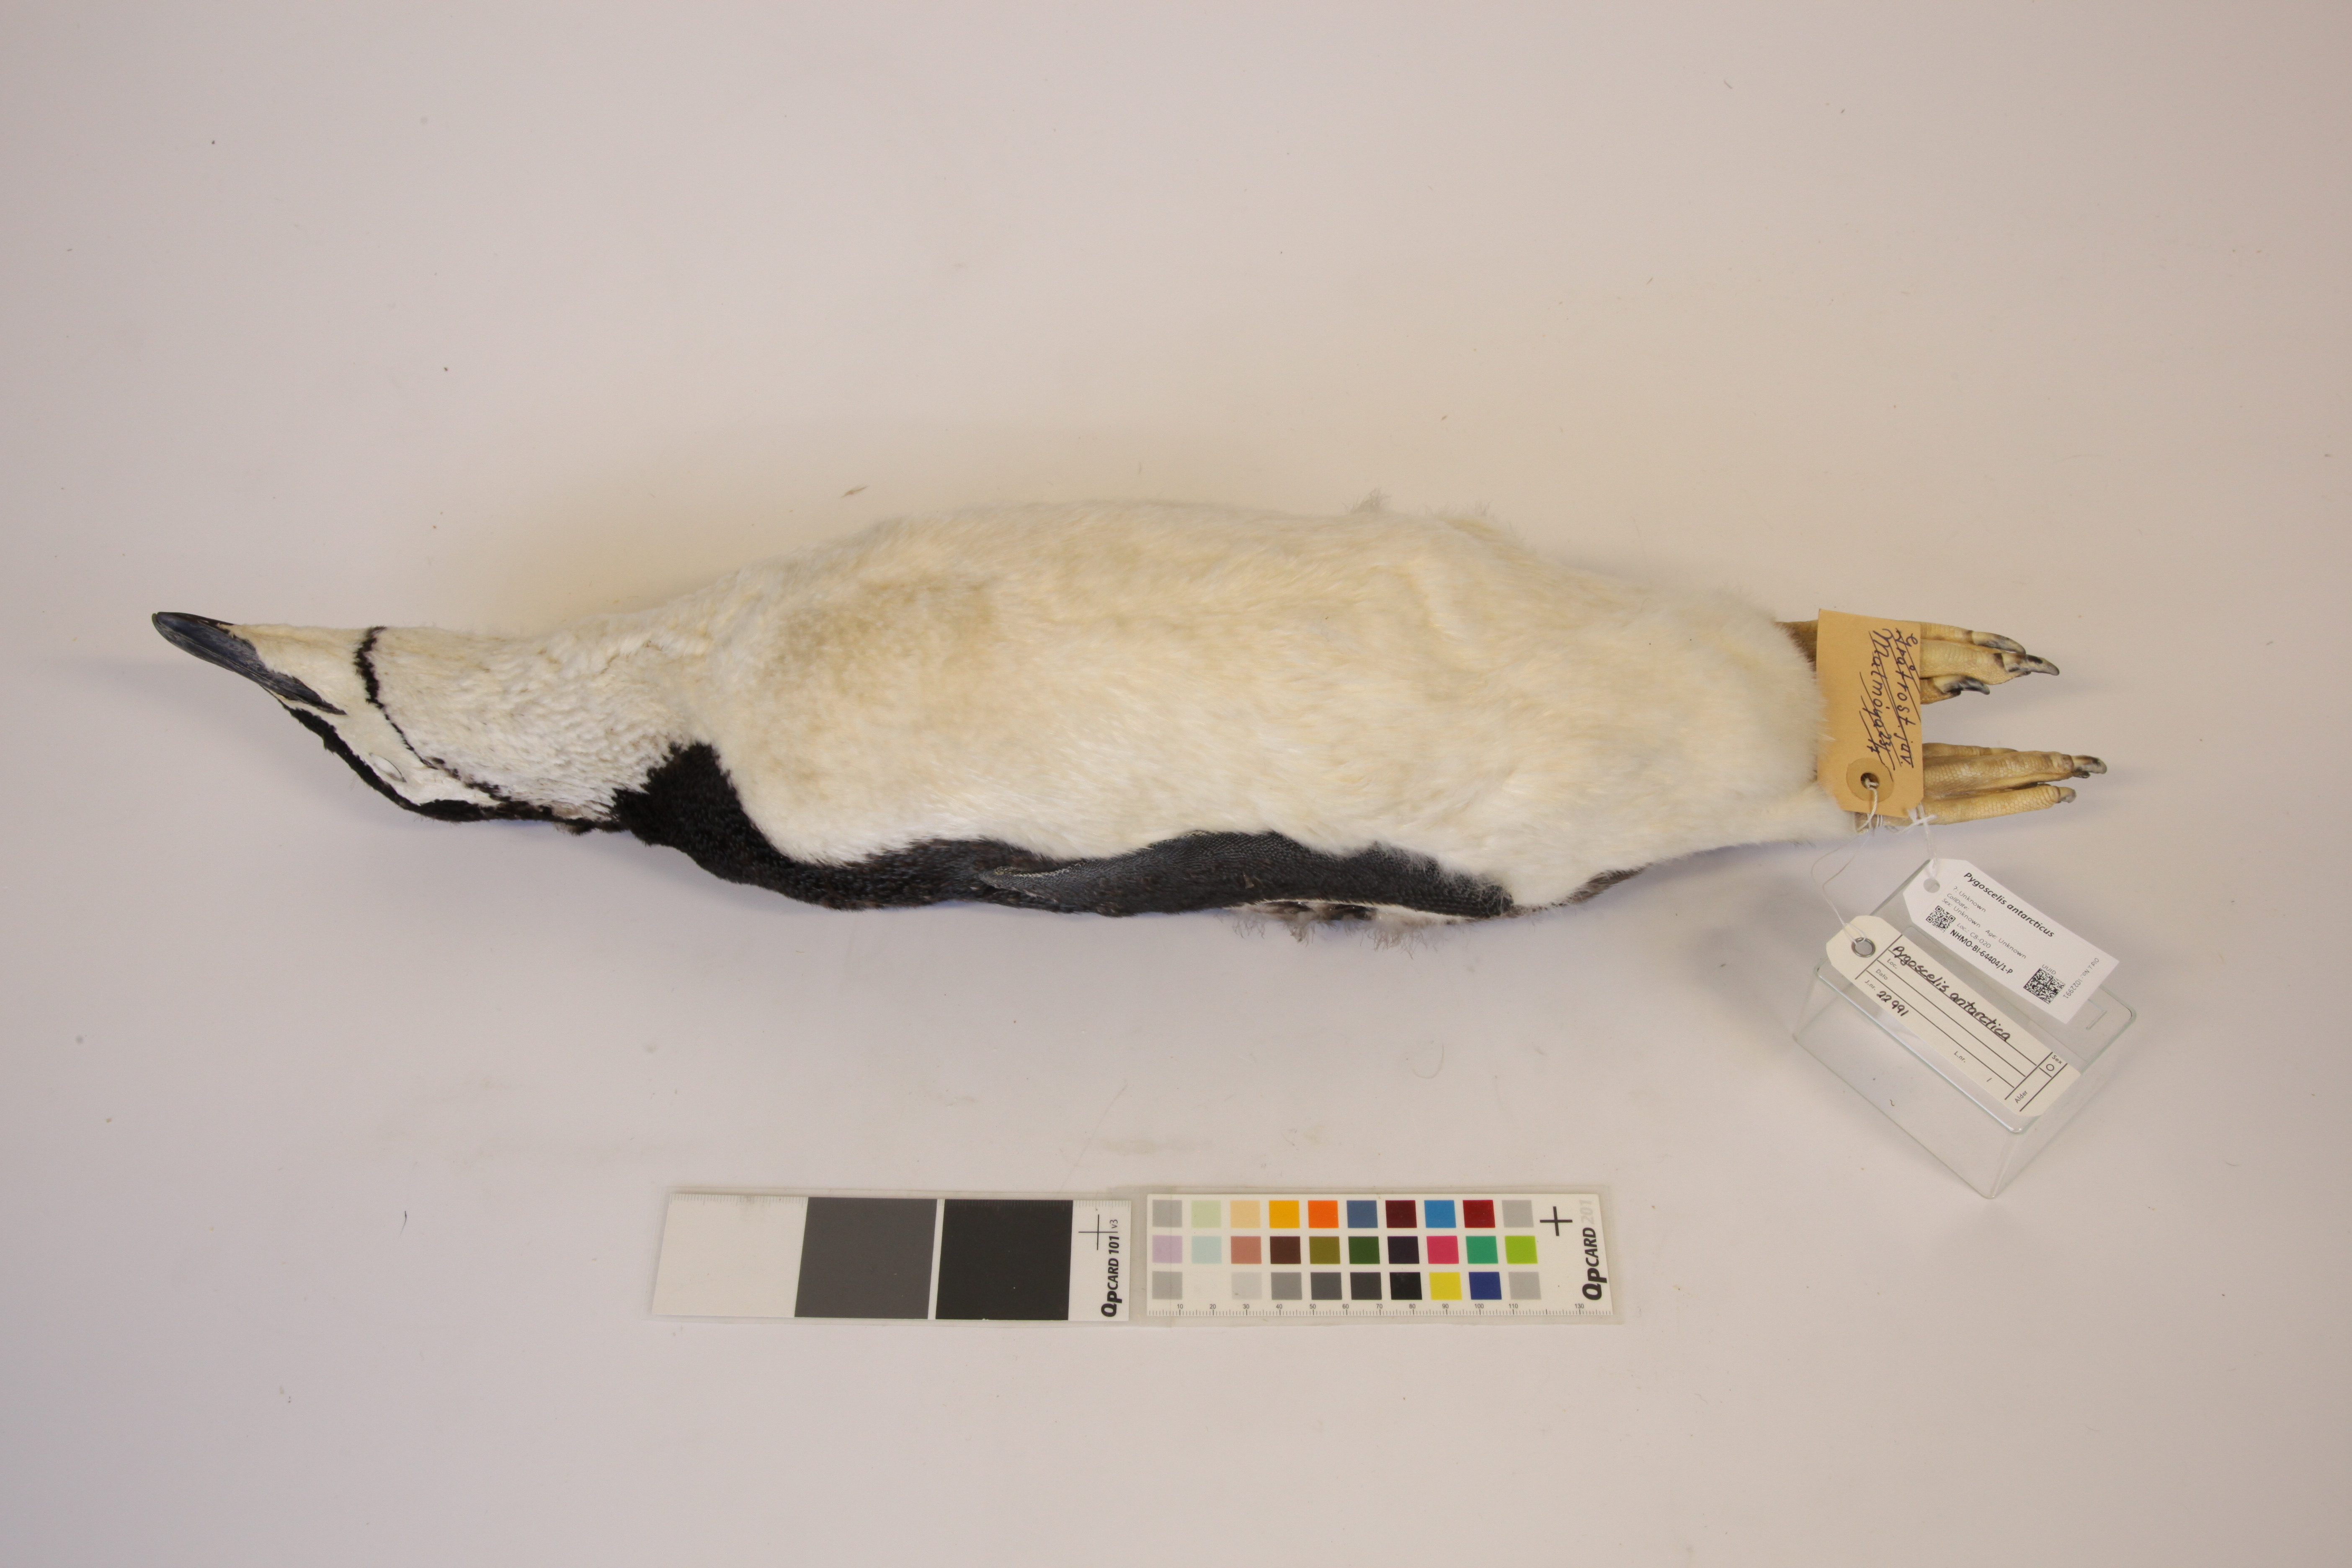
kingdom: Animalia
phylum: Chordata
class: Aves
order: Sphenisciformes
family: Spheniscidae
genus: Pygoscelis
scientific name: Pygoscelis antarcticus
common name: Chinstrap penguin
